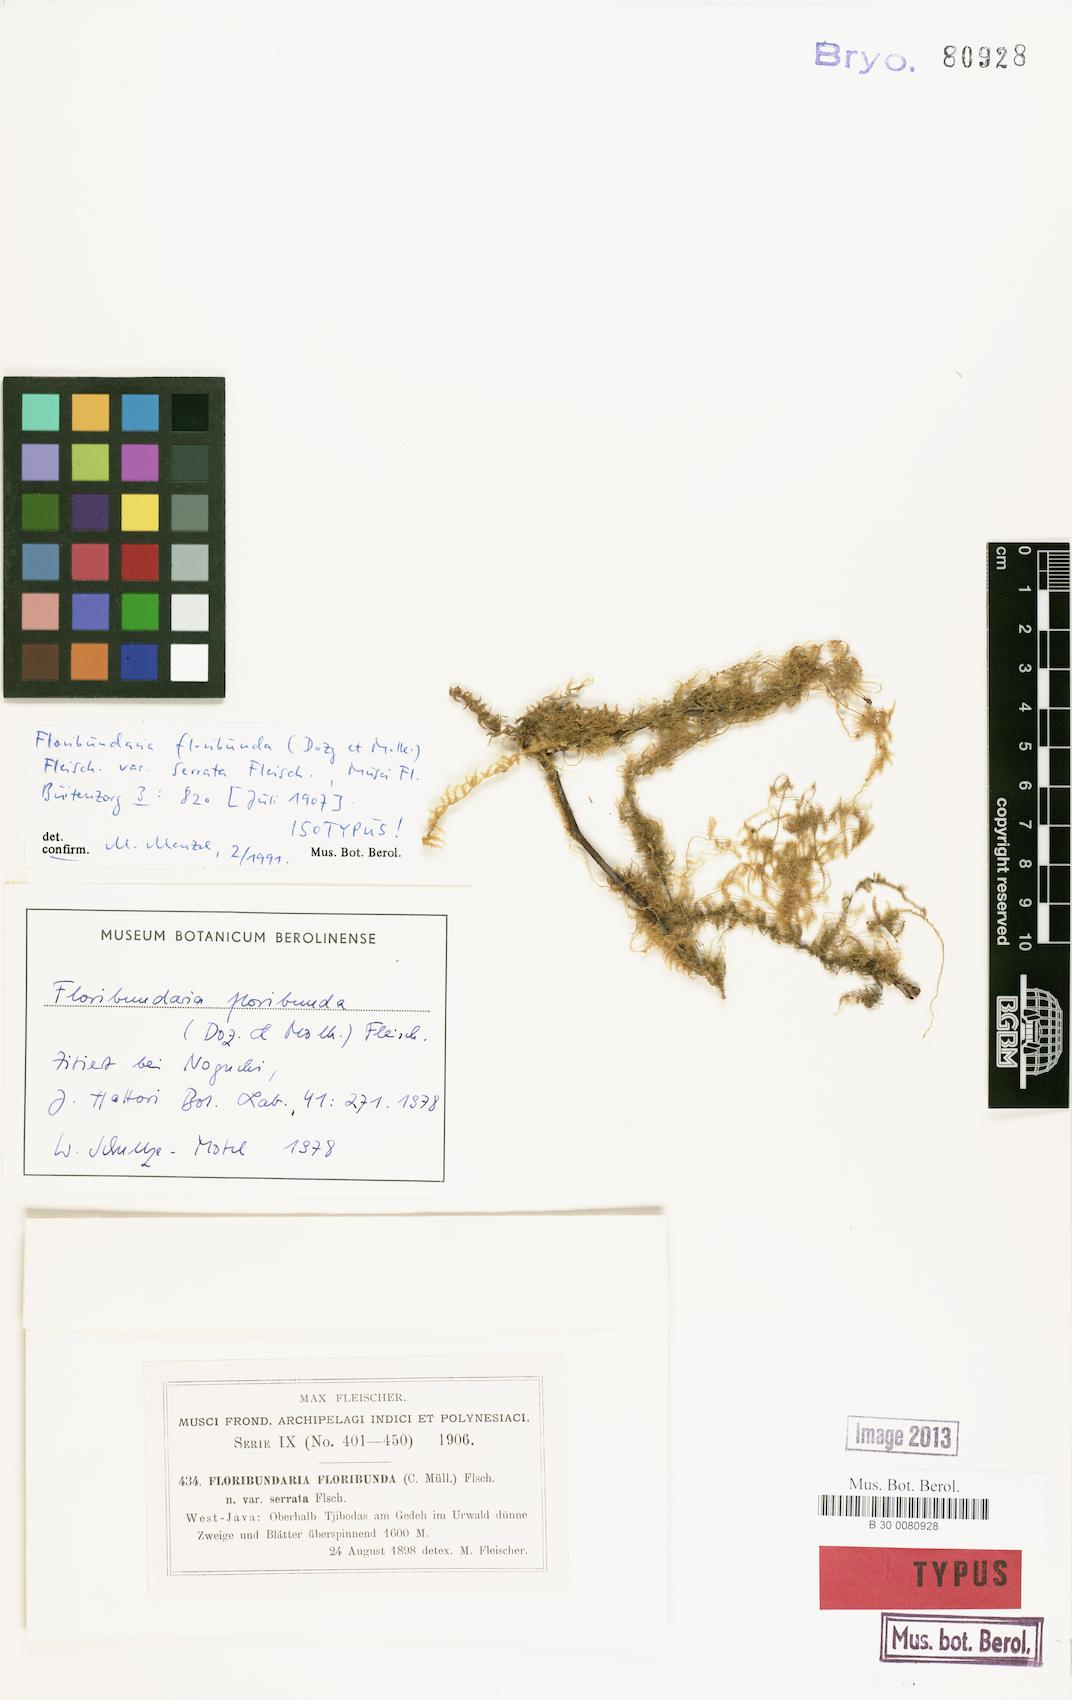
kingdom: Plantae
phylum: Bryophyta
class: Bryopsida
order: Hypnales
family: Meteoriaceae
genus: Floribundaria
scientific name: Floribundaria floribunda
